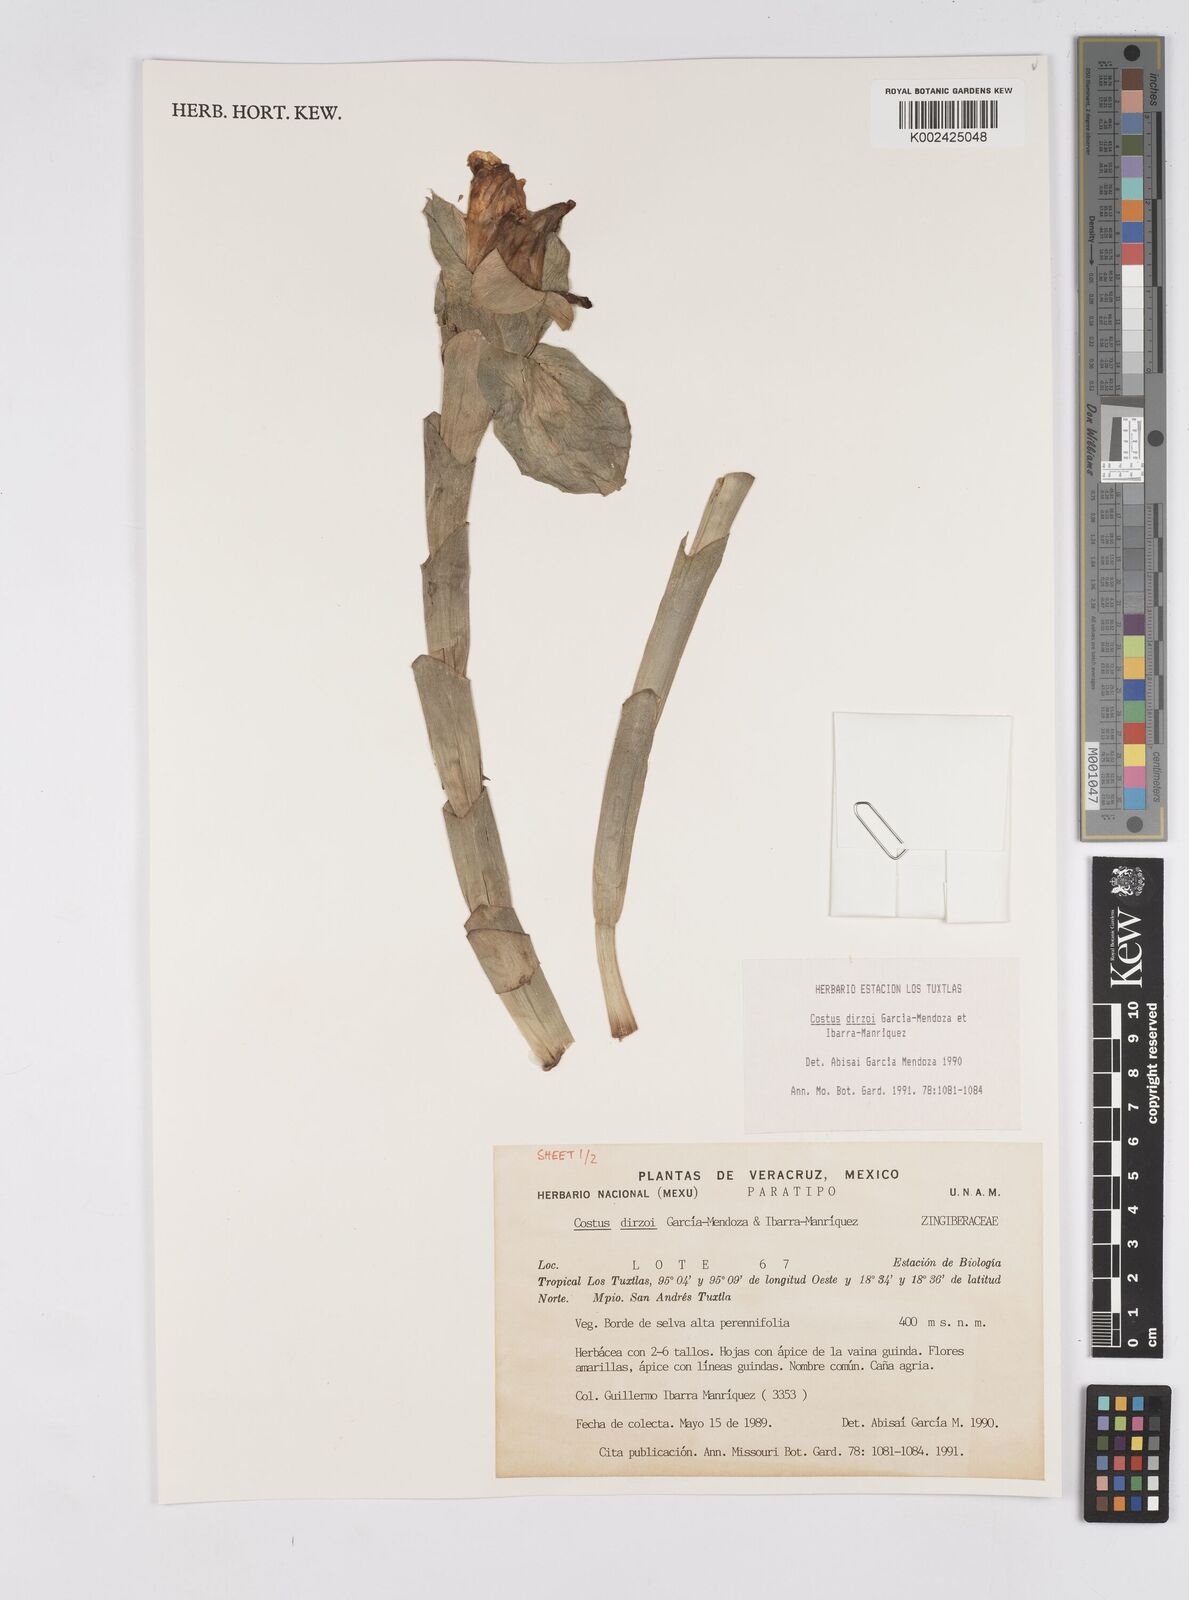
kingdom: Plantae
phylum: Tracheophyta
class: Liliopsida
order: Zingiberales
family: Costaceae
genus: Costus
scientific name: Costus dirzoi
